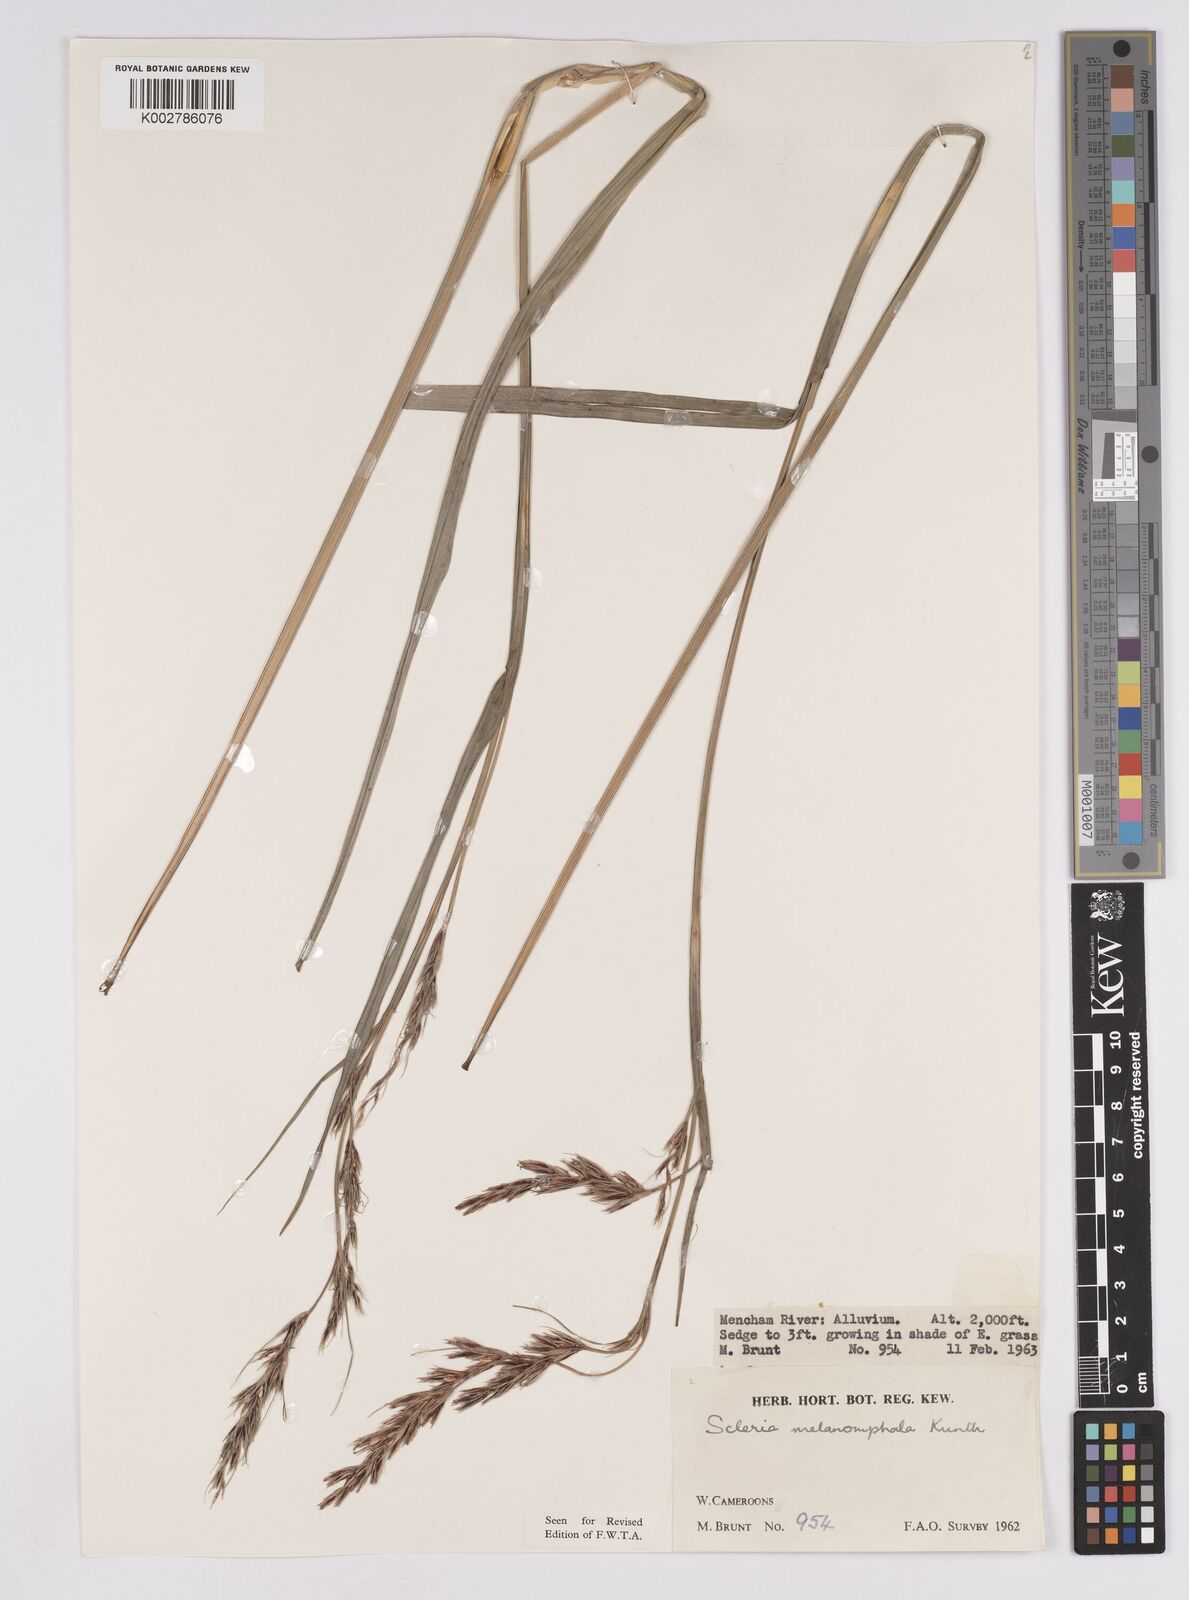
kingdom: Plantae
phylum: Tracheophyta
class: Liliopsida
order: Poales
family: Cyperaceae
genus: Scleria
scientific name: Scleria melanomphala
